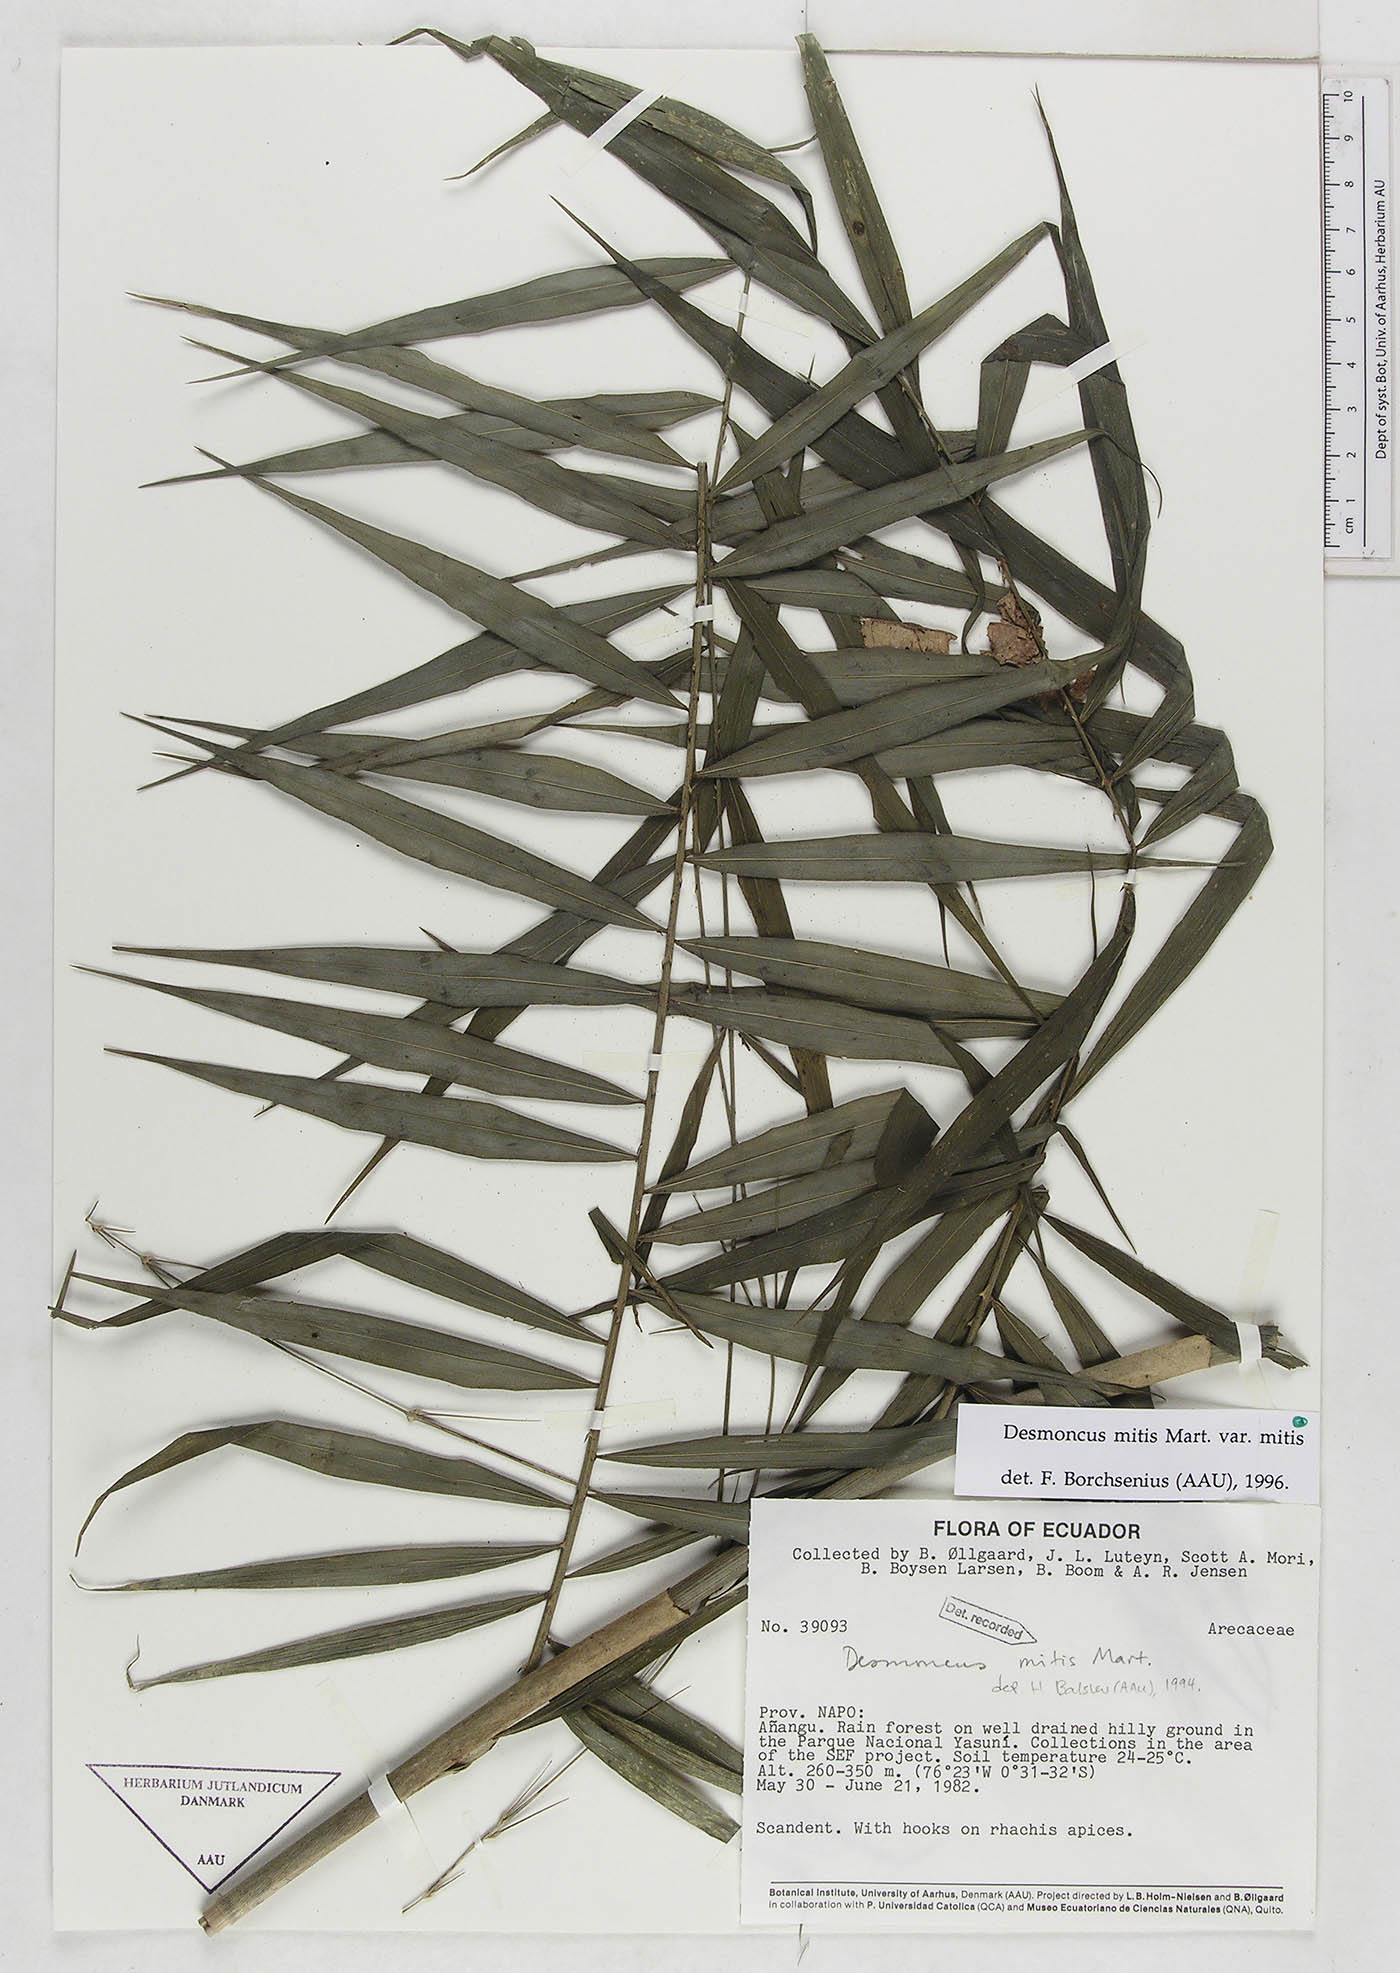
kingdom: Plantae
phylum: Tracheophyta
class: Liliopsida
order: Arecales
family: Arecaceae
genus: Desmoncus
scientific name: Desmoncus mitis
